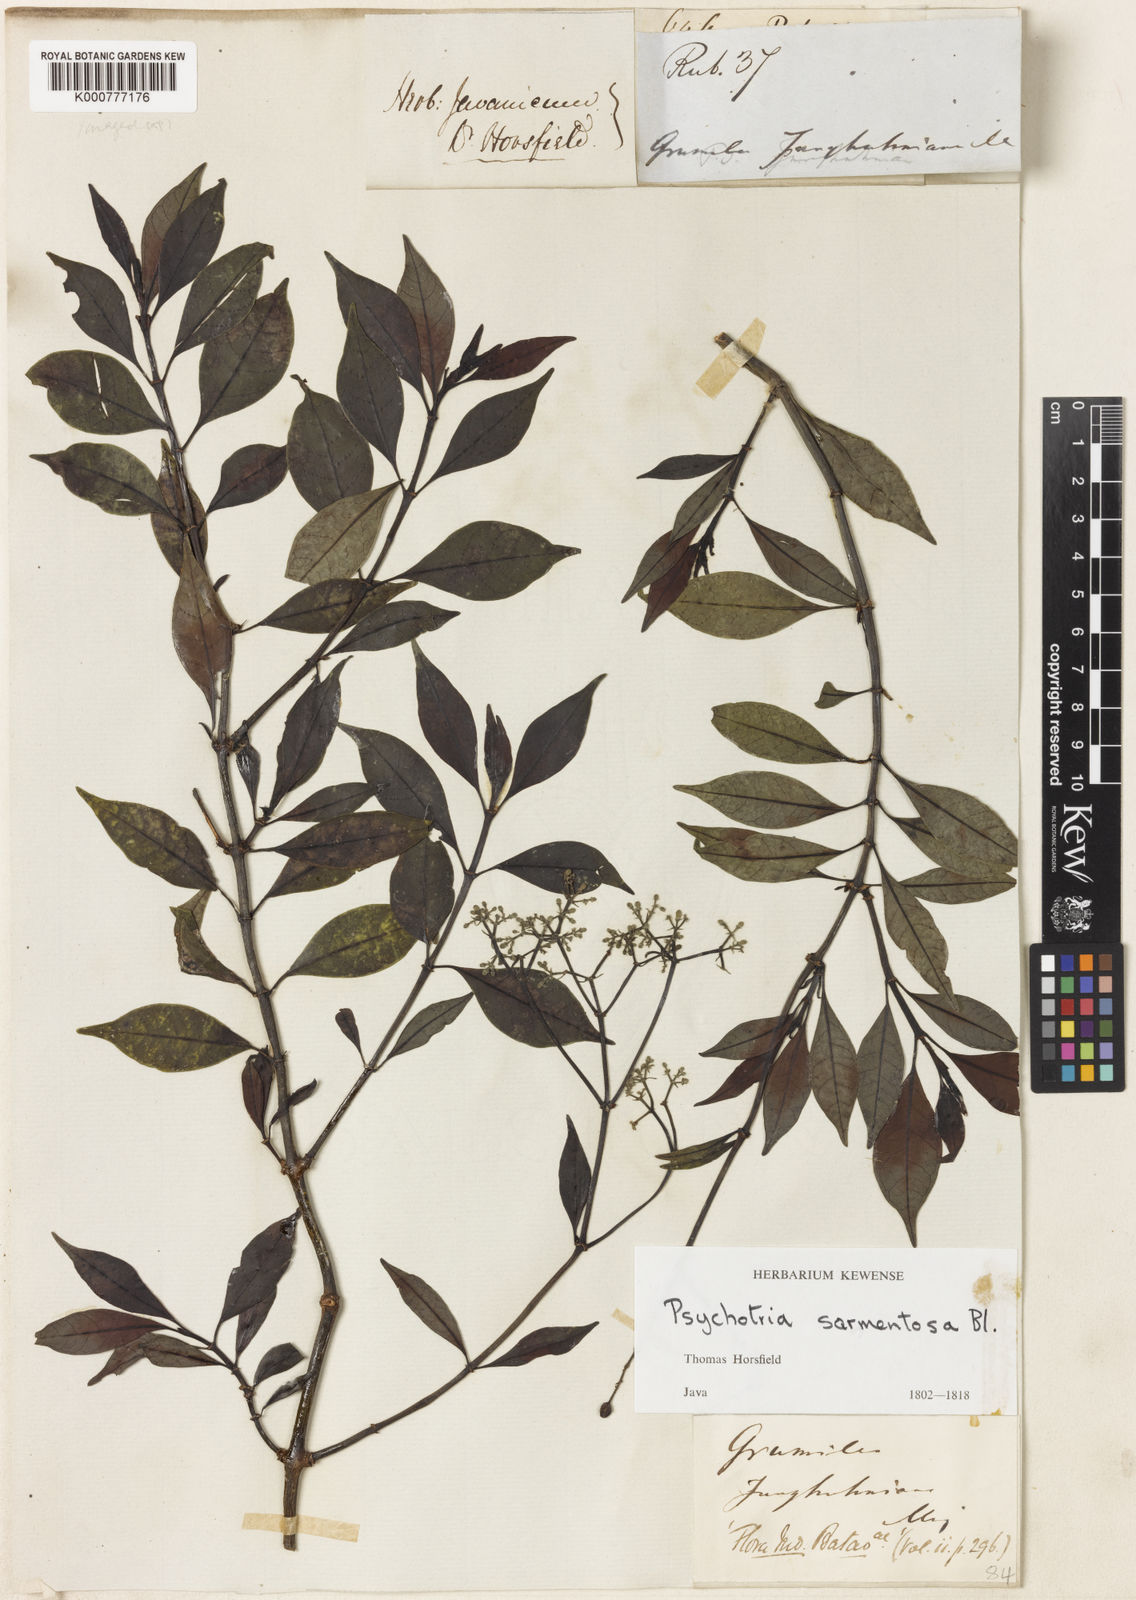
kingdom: Plantae
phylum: Tracheophyta
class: Magnoliopsida
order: Gentianales
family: Rubiaceae
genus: Psychotria
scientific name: Psychotria sarmentosa
